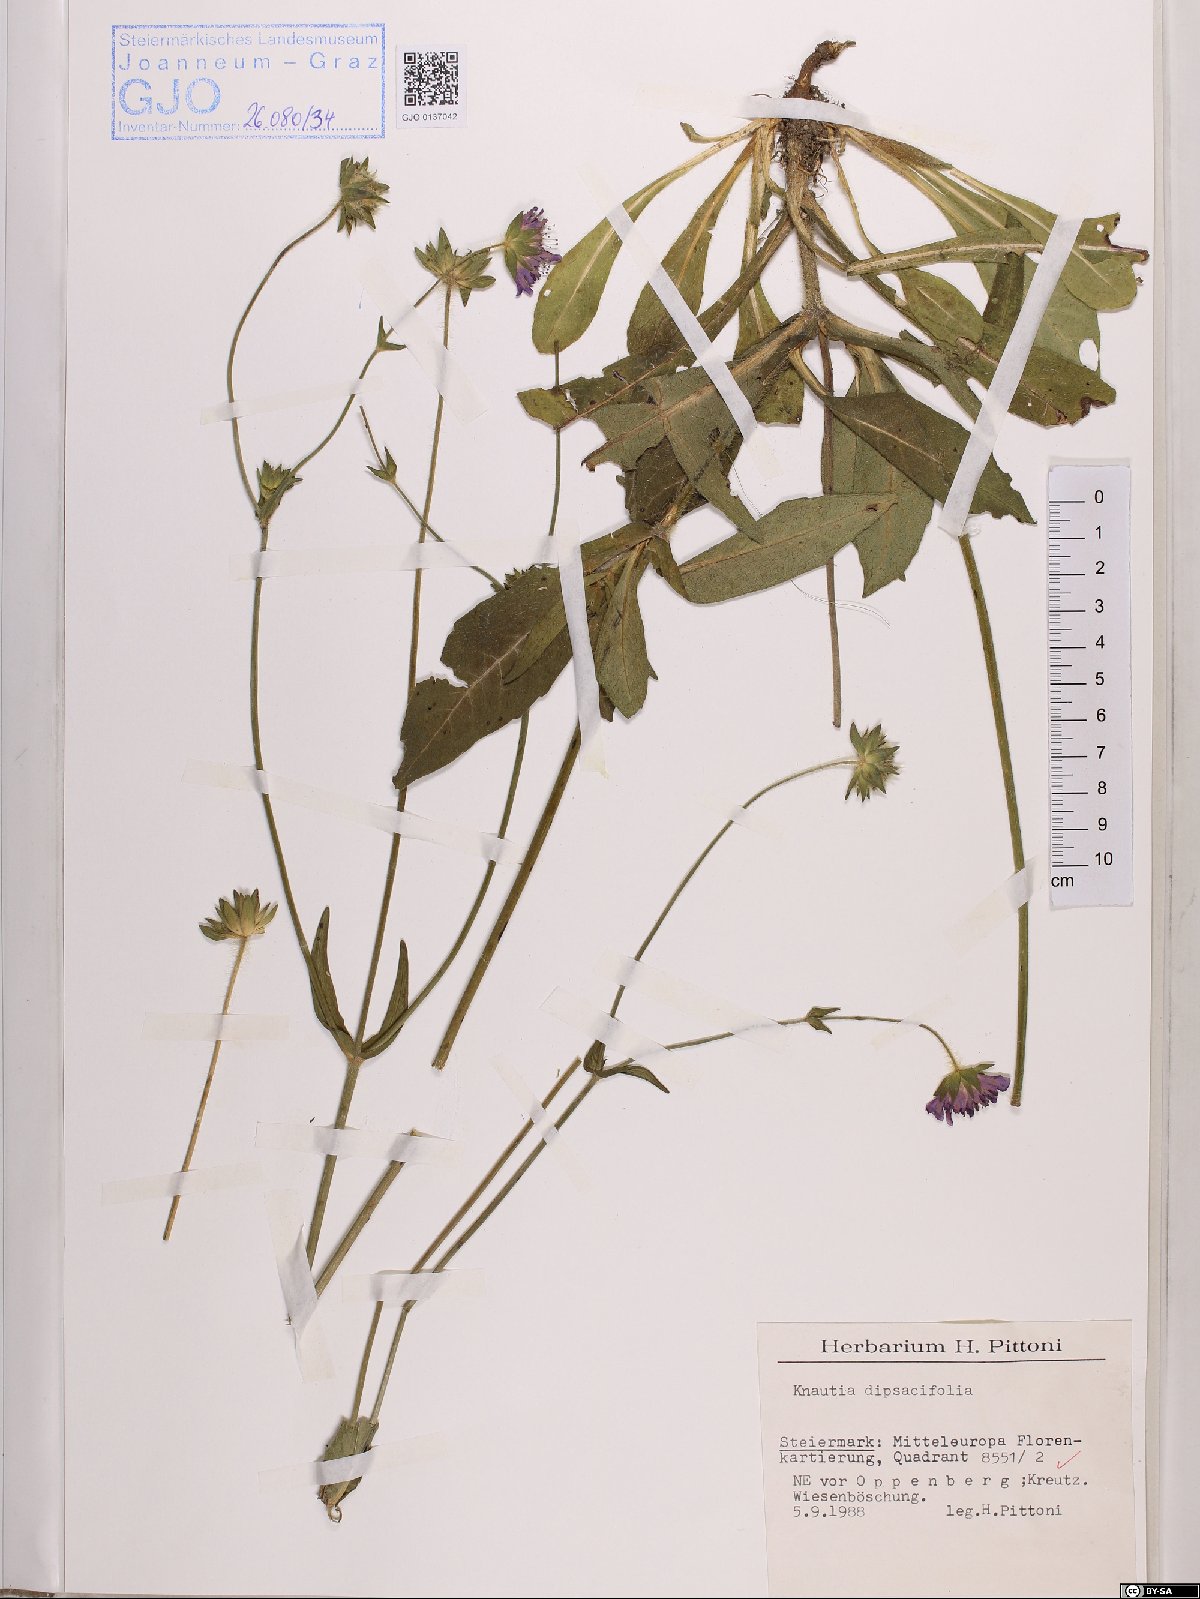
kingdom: Plantae
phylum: Tracheophyta
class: Magnoliopsida
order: Dipsacales
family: Caprifoliaceae
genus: Knautia
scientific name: Knautia dipsacifolia
